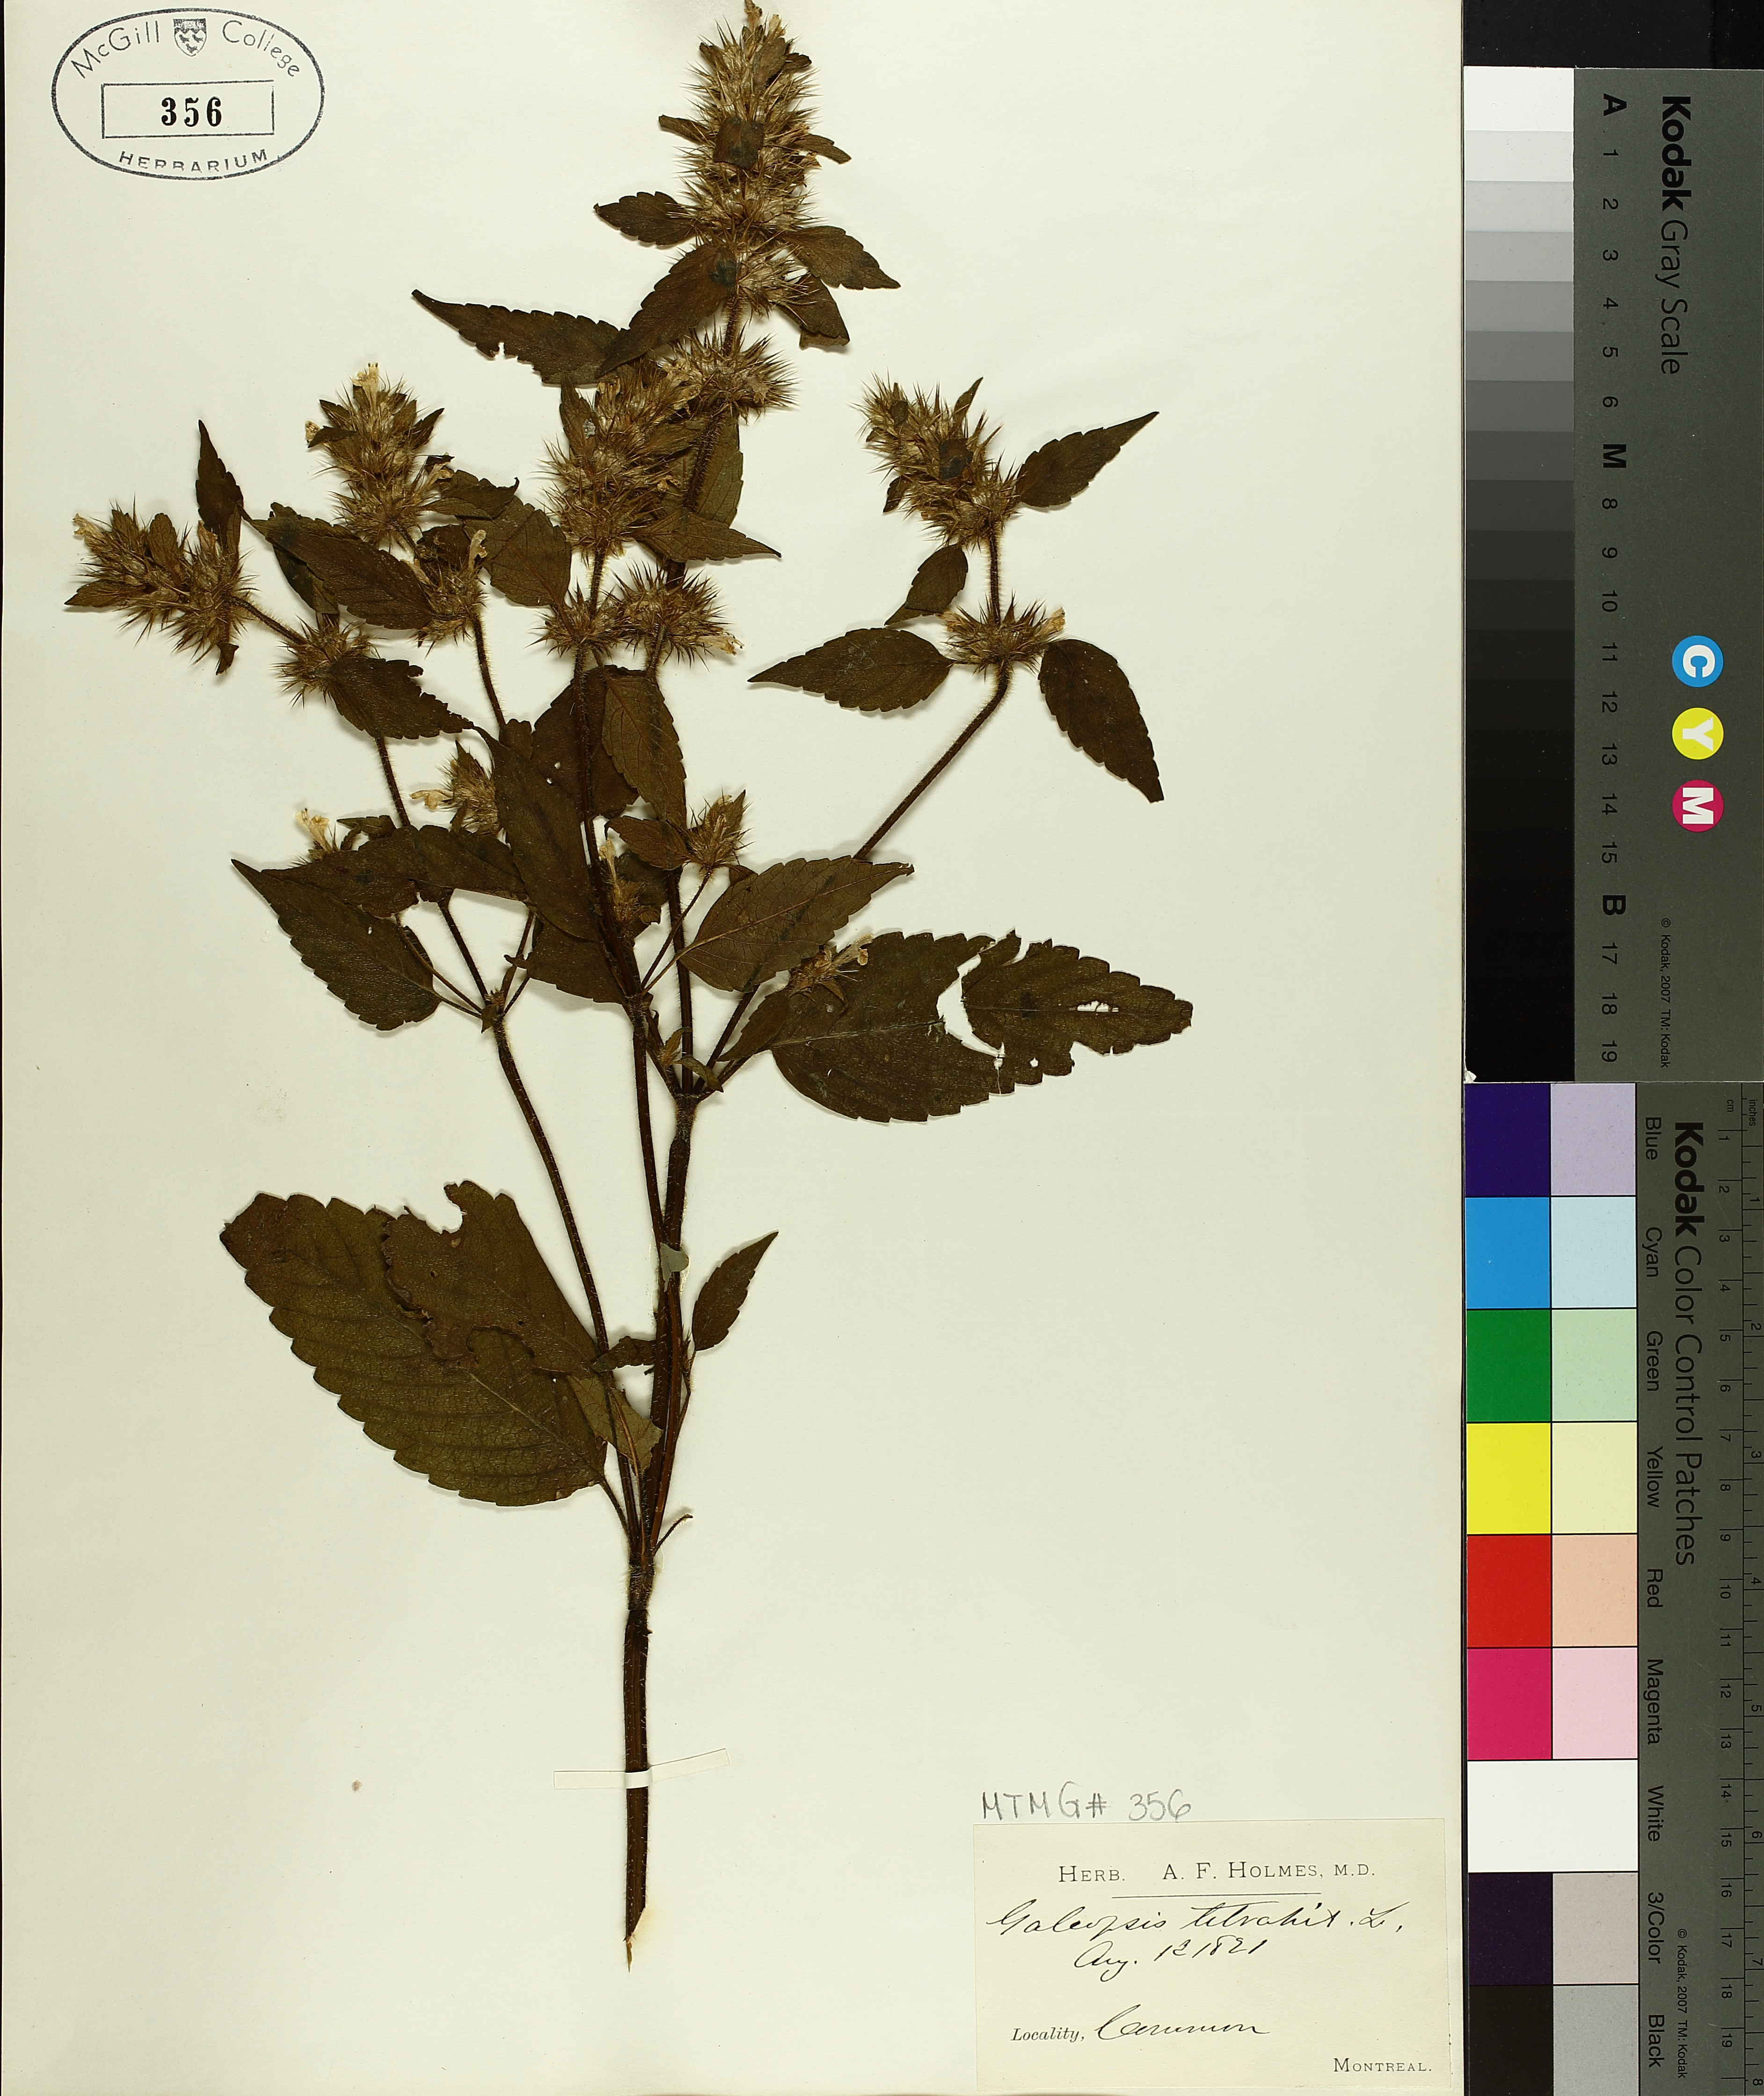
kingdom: Plantae
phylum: Tracheophyta
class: Magnoliopsida
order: Lamiales
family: Lamiaceae
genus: Galeopsis
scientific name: Galeopsis tetrahit
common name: Common hemp-nettle
